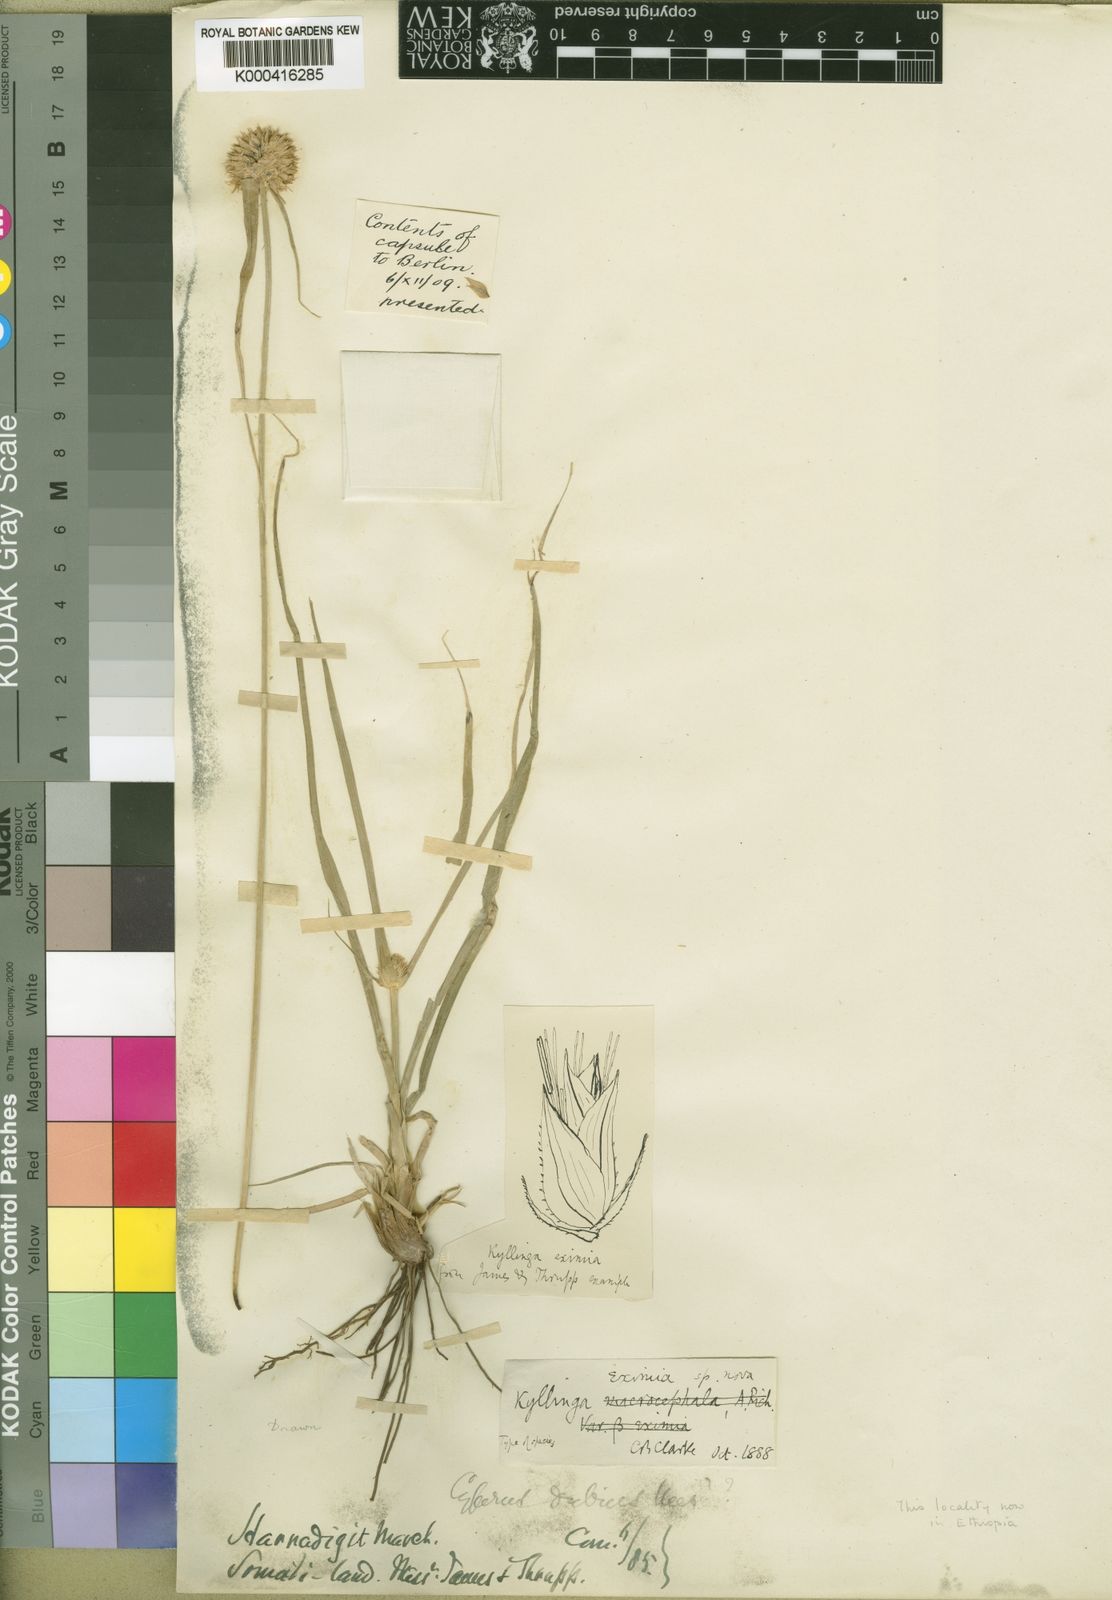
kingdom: Plantae
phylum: Tracheophyta
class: Liliopsida
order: Poales
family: Cyperaceae
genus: Cyperus
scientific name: Cyperus eximius
